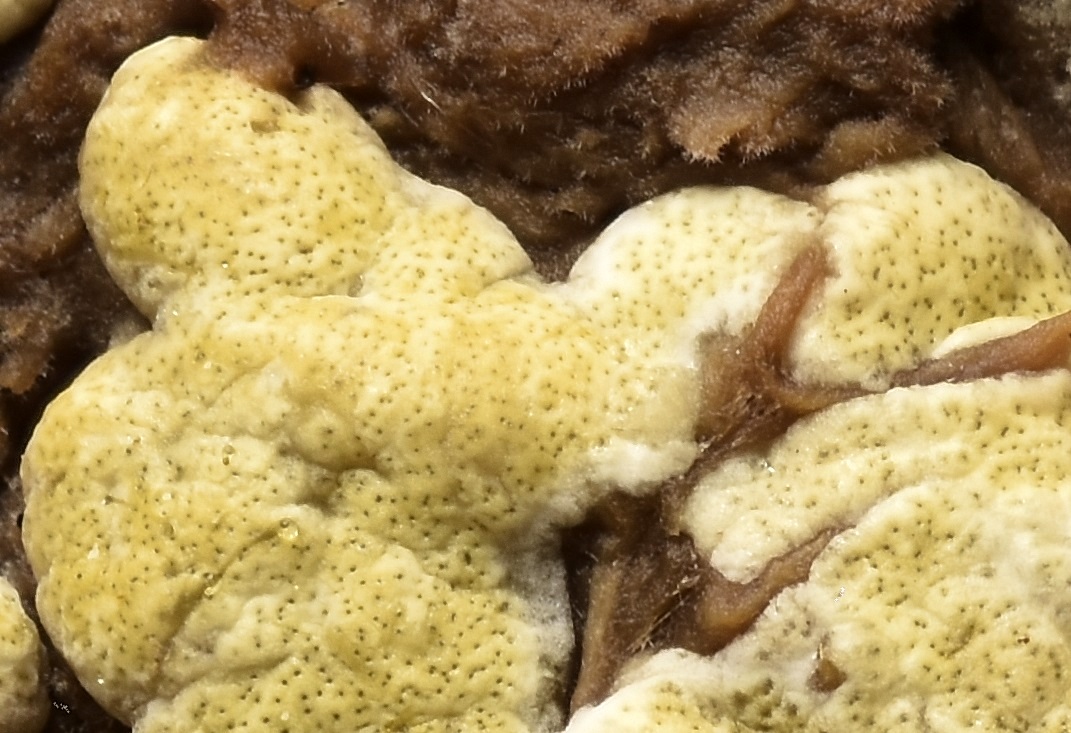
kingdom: Fungi
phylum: Ascomycota
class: Sordariomycetes
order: Hypocreales
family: Hypocreaceae
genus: Trichoderma
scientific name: Trichoderma pulvinatum
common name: snyltende kødkerne
